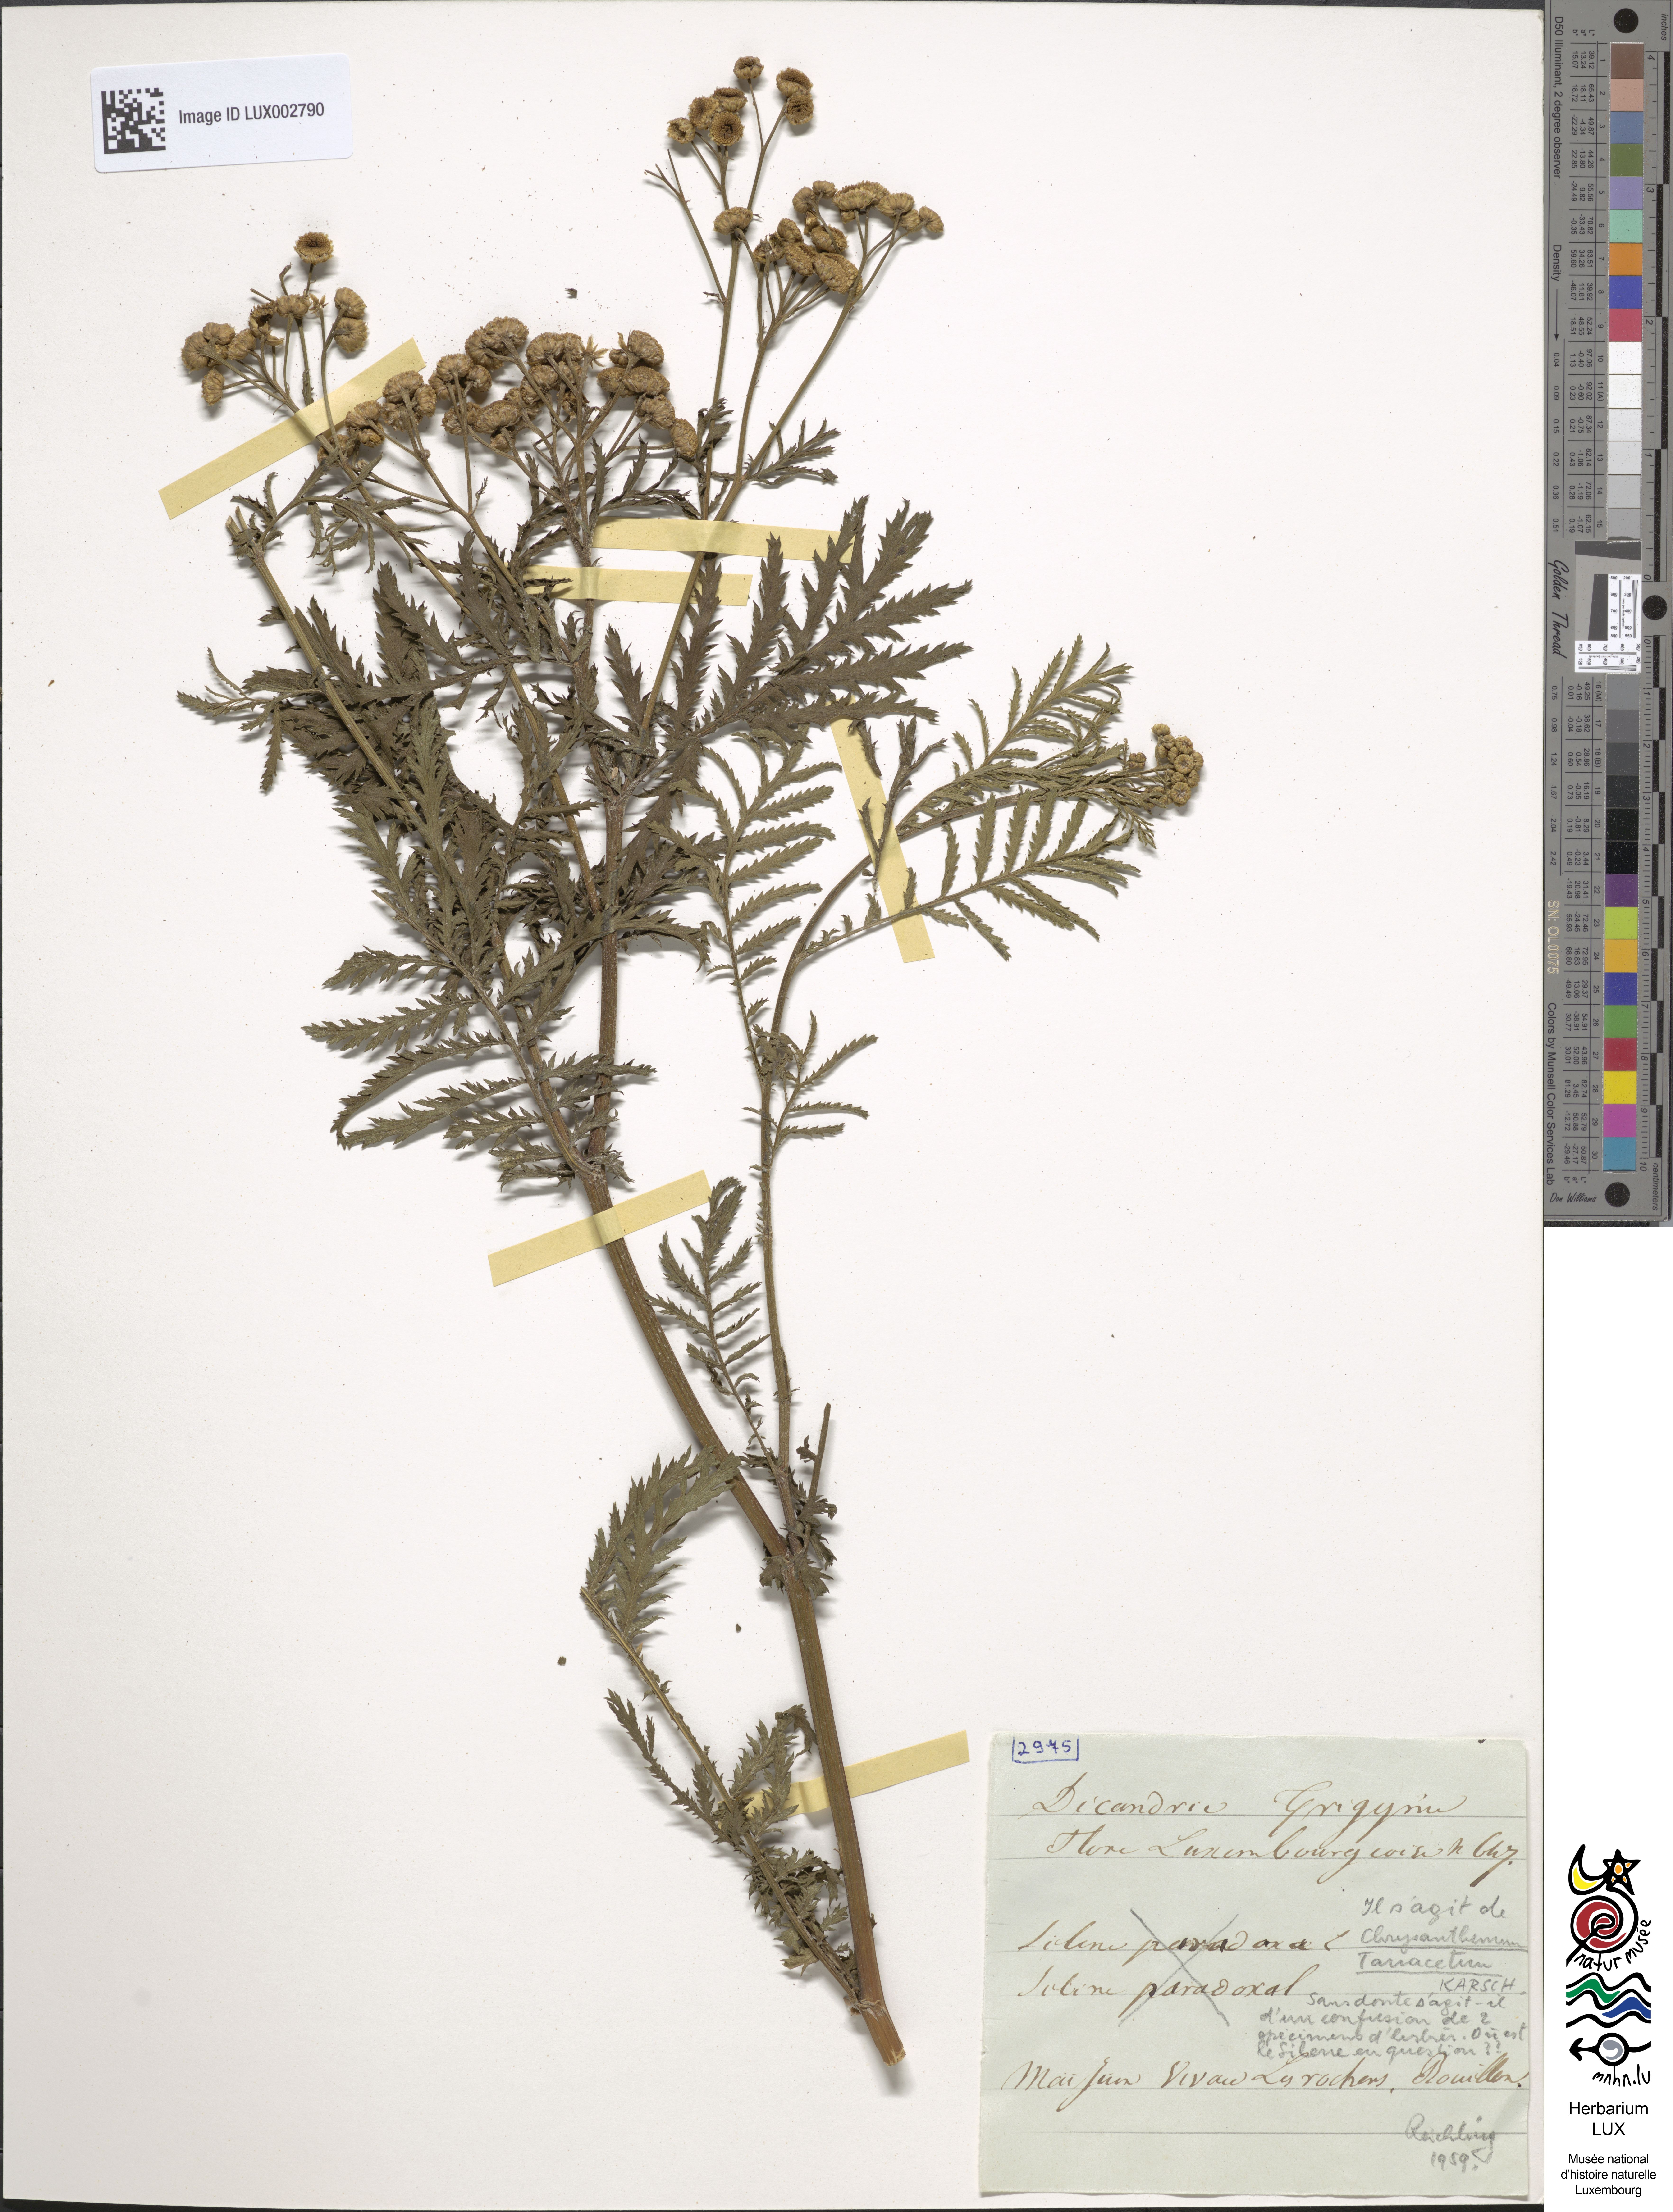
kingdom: Plantae
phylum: Tracheophyta
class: Magnoliopsida
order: Caryophyllales
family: Caryophyllaceae
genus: Silene
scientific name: Silene paradoxa
